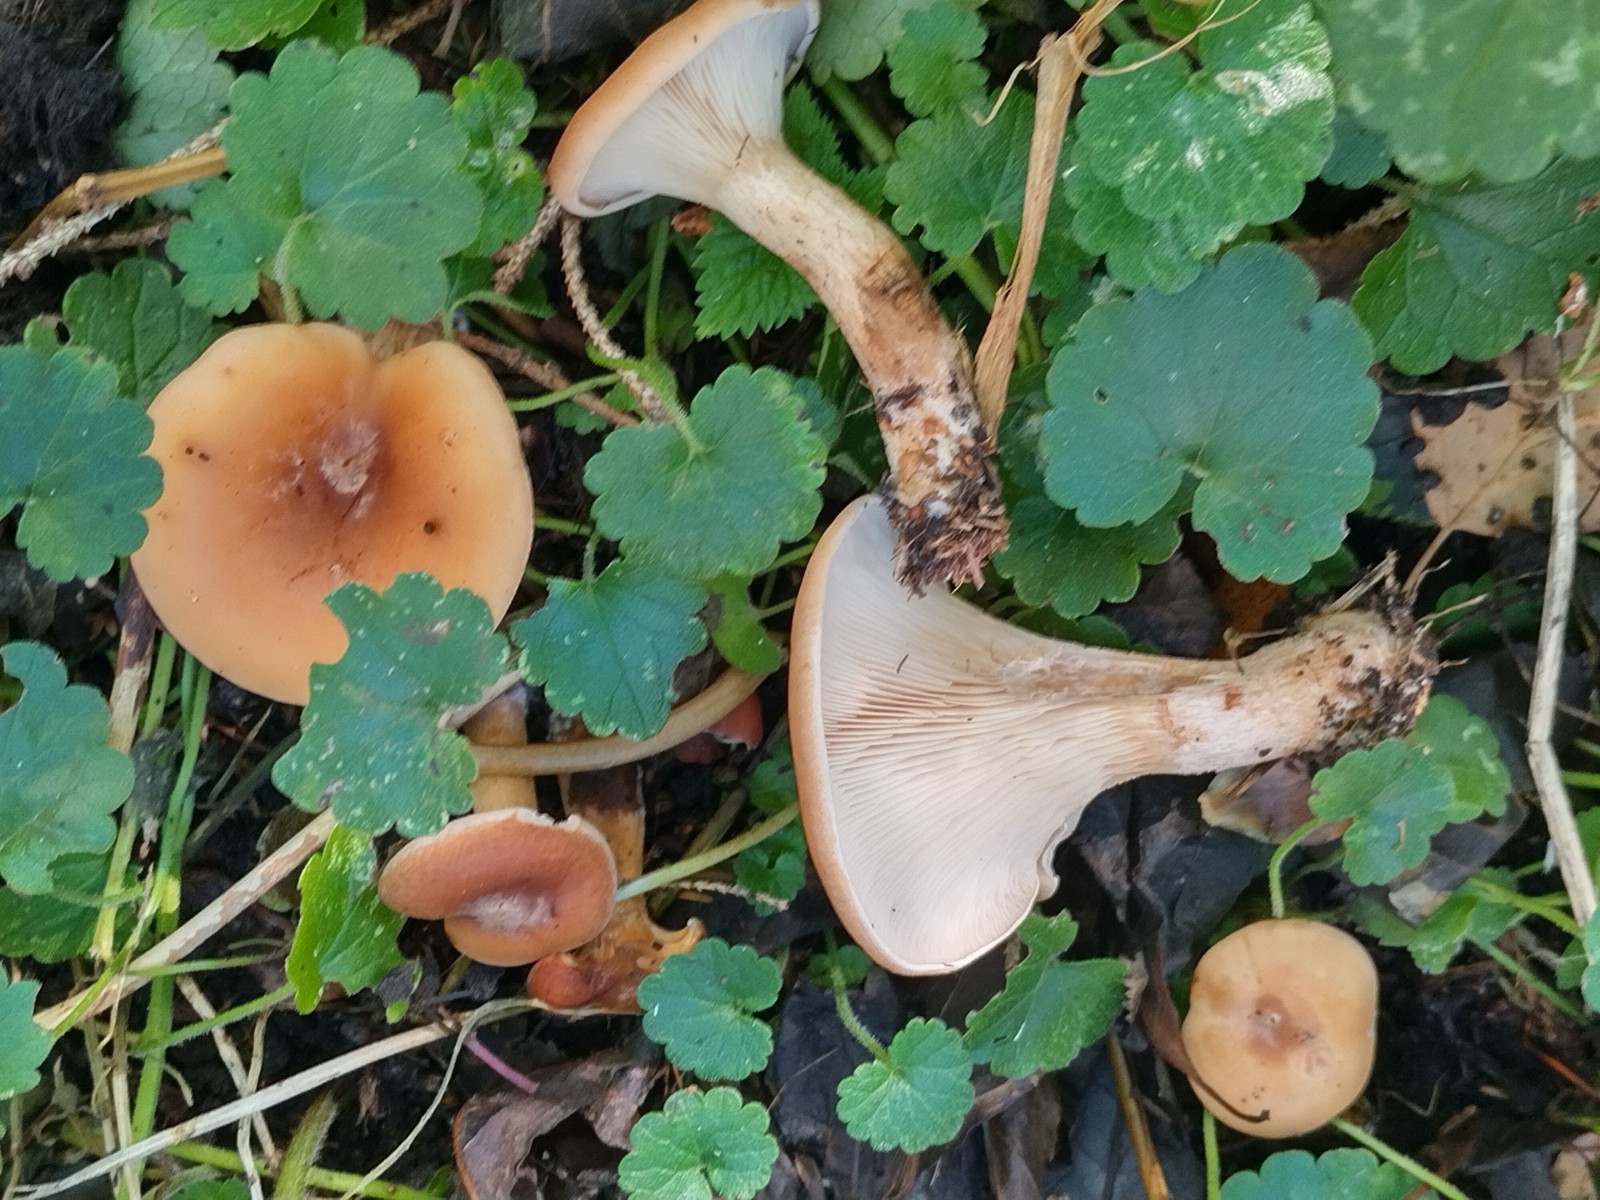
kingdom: Fungi
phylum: Basidiomycota
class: Agaricomycetes
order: Agaricales
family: Tricholomataceae
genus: Paralepista
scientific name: Paralepista flaccida
